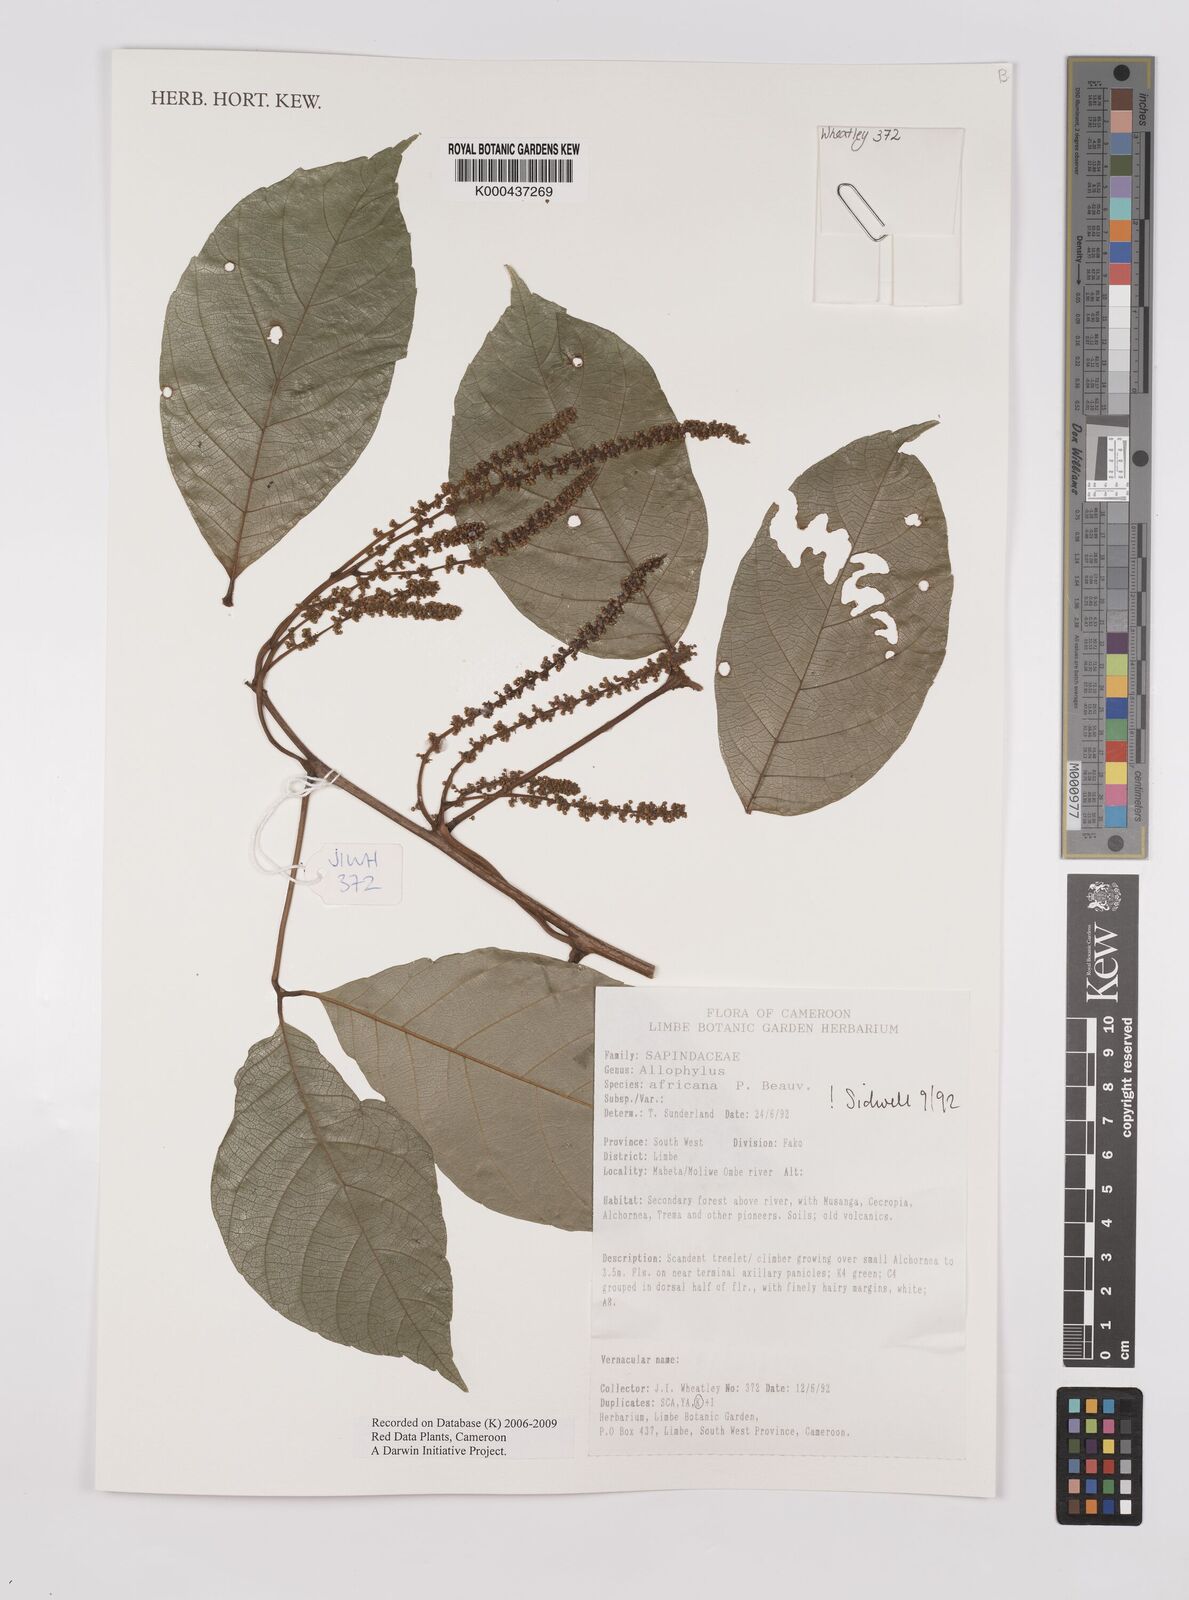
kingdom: Plantae
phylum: Tracheophyta
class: Magnoliopsida
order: Sapindales
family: Sapindaceae
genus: Allophylus
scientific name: Allophylus africanus
